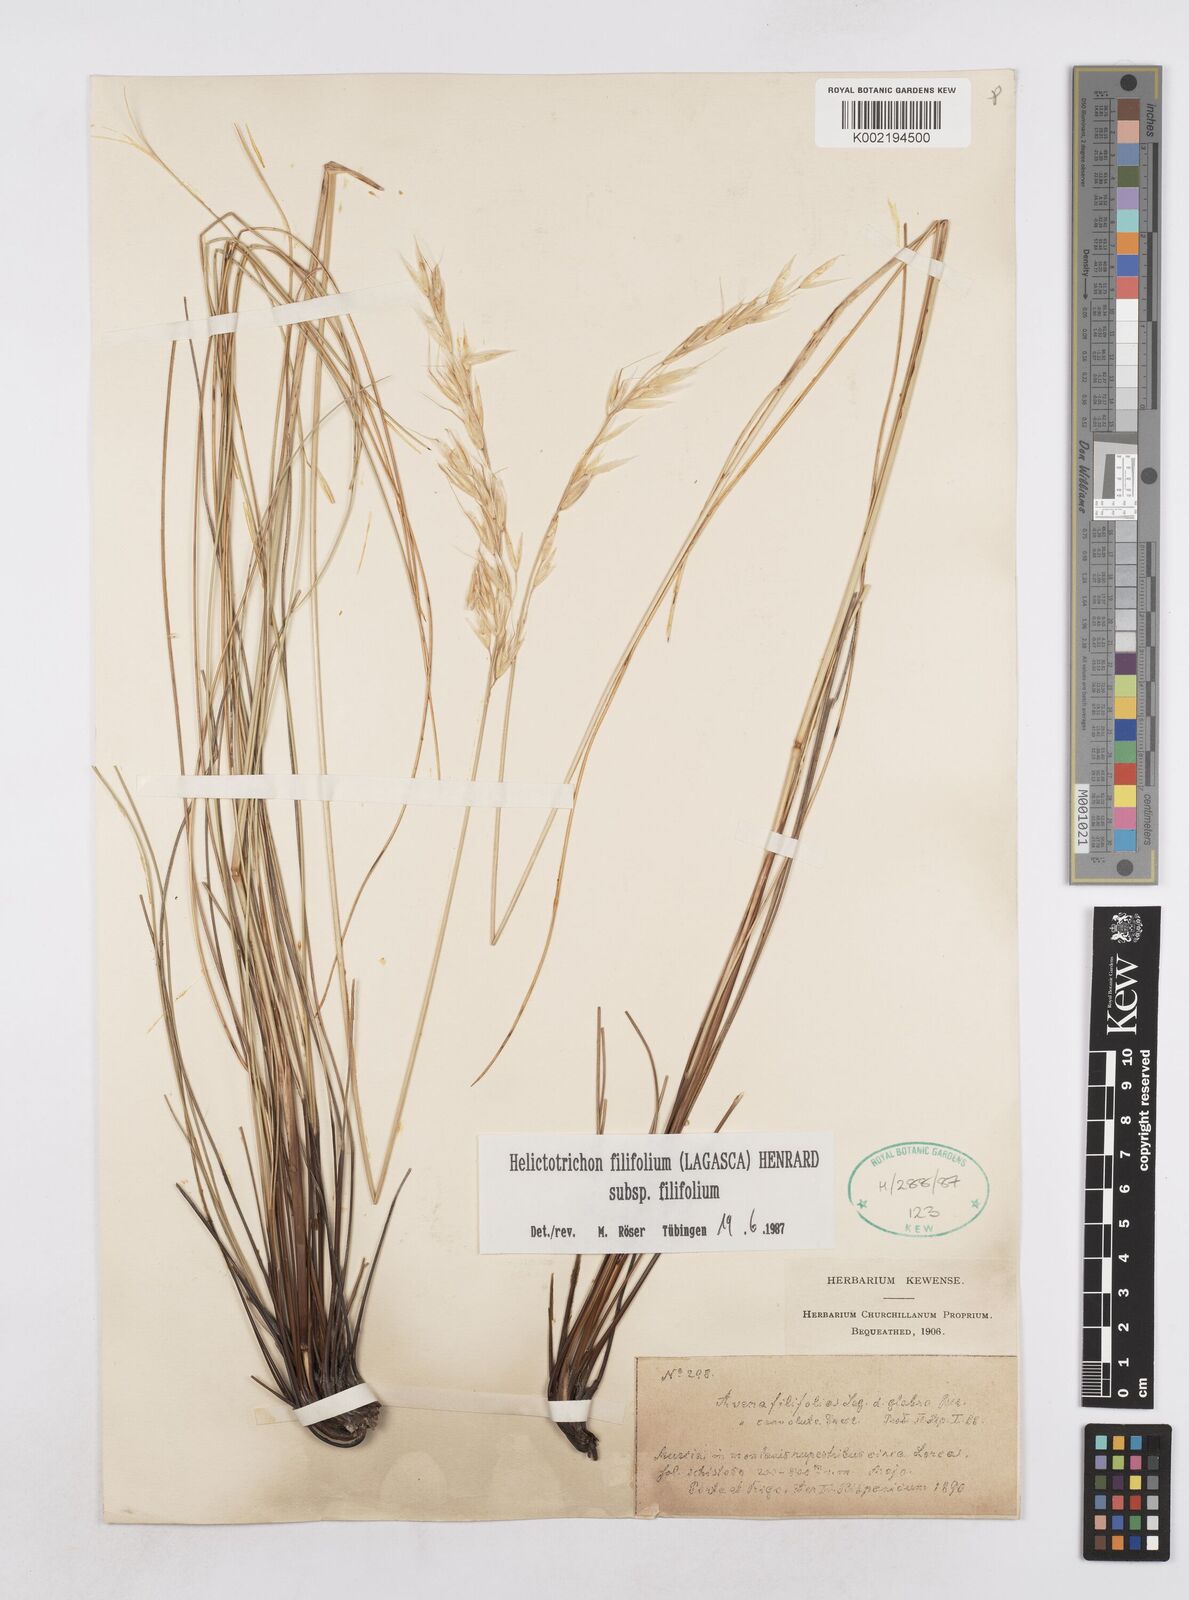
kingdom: Plantae
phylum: Tracheophyta
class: Liliopsida
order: Poales
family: Poaceae
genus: Helictotrichon
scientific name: Helictotrichon filifolium
